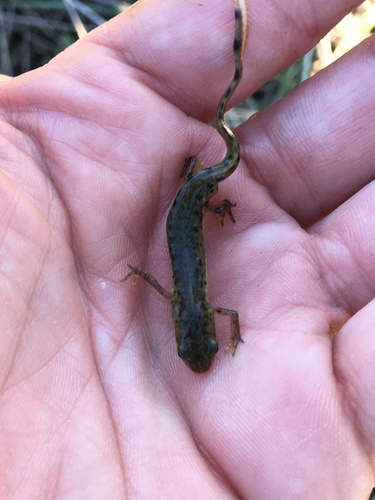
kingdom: Animalia
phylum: Chordata
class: Amphibia
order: Caudata
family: Salamandridae
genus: Lissotriton
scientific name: Lissotriton boscai
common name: Bosca's newt
